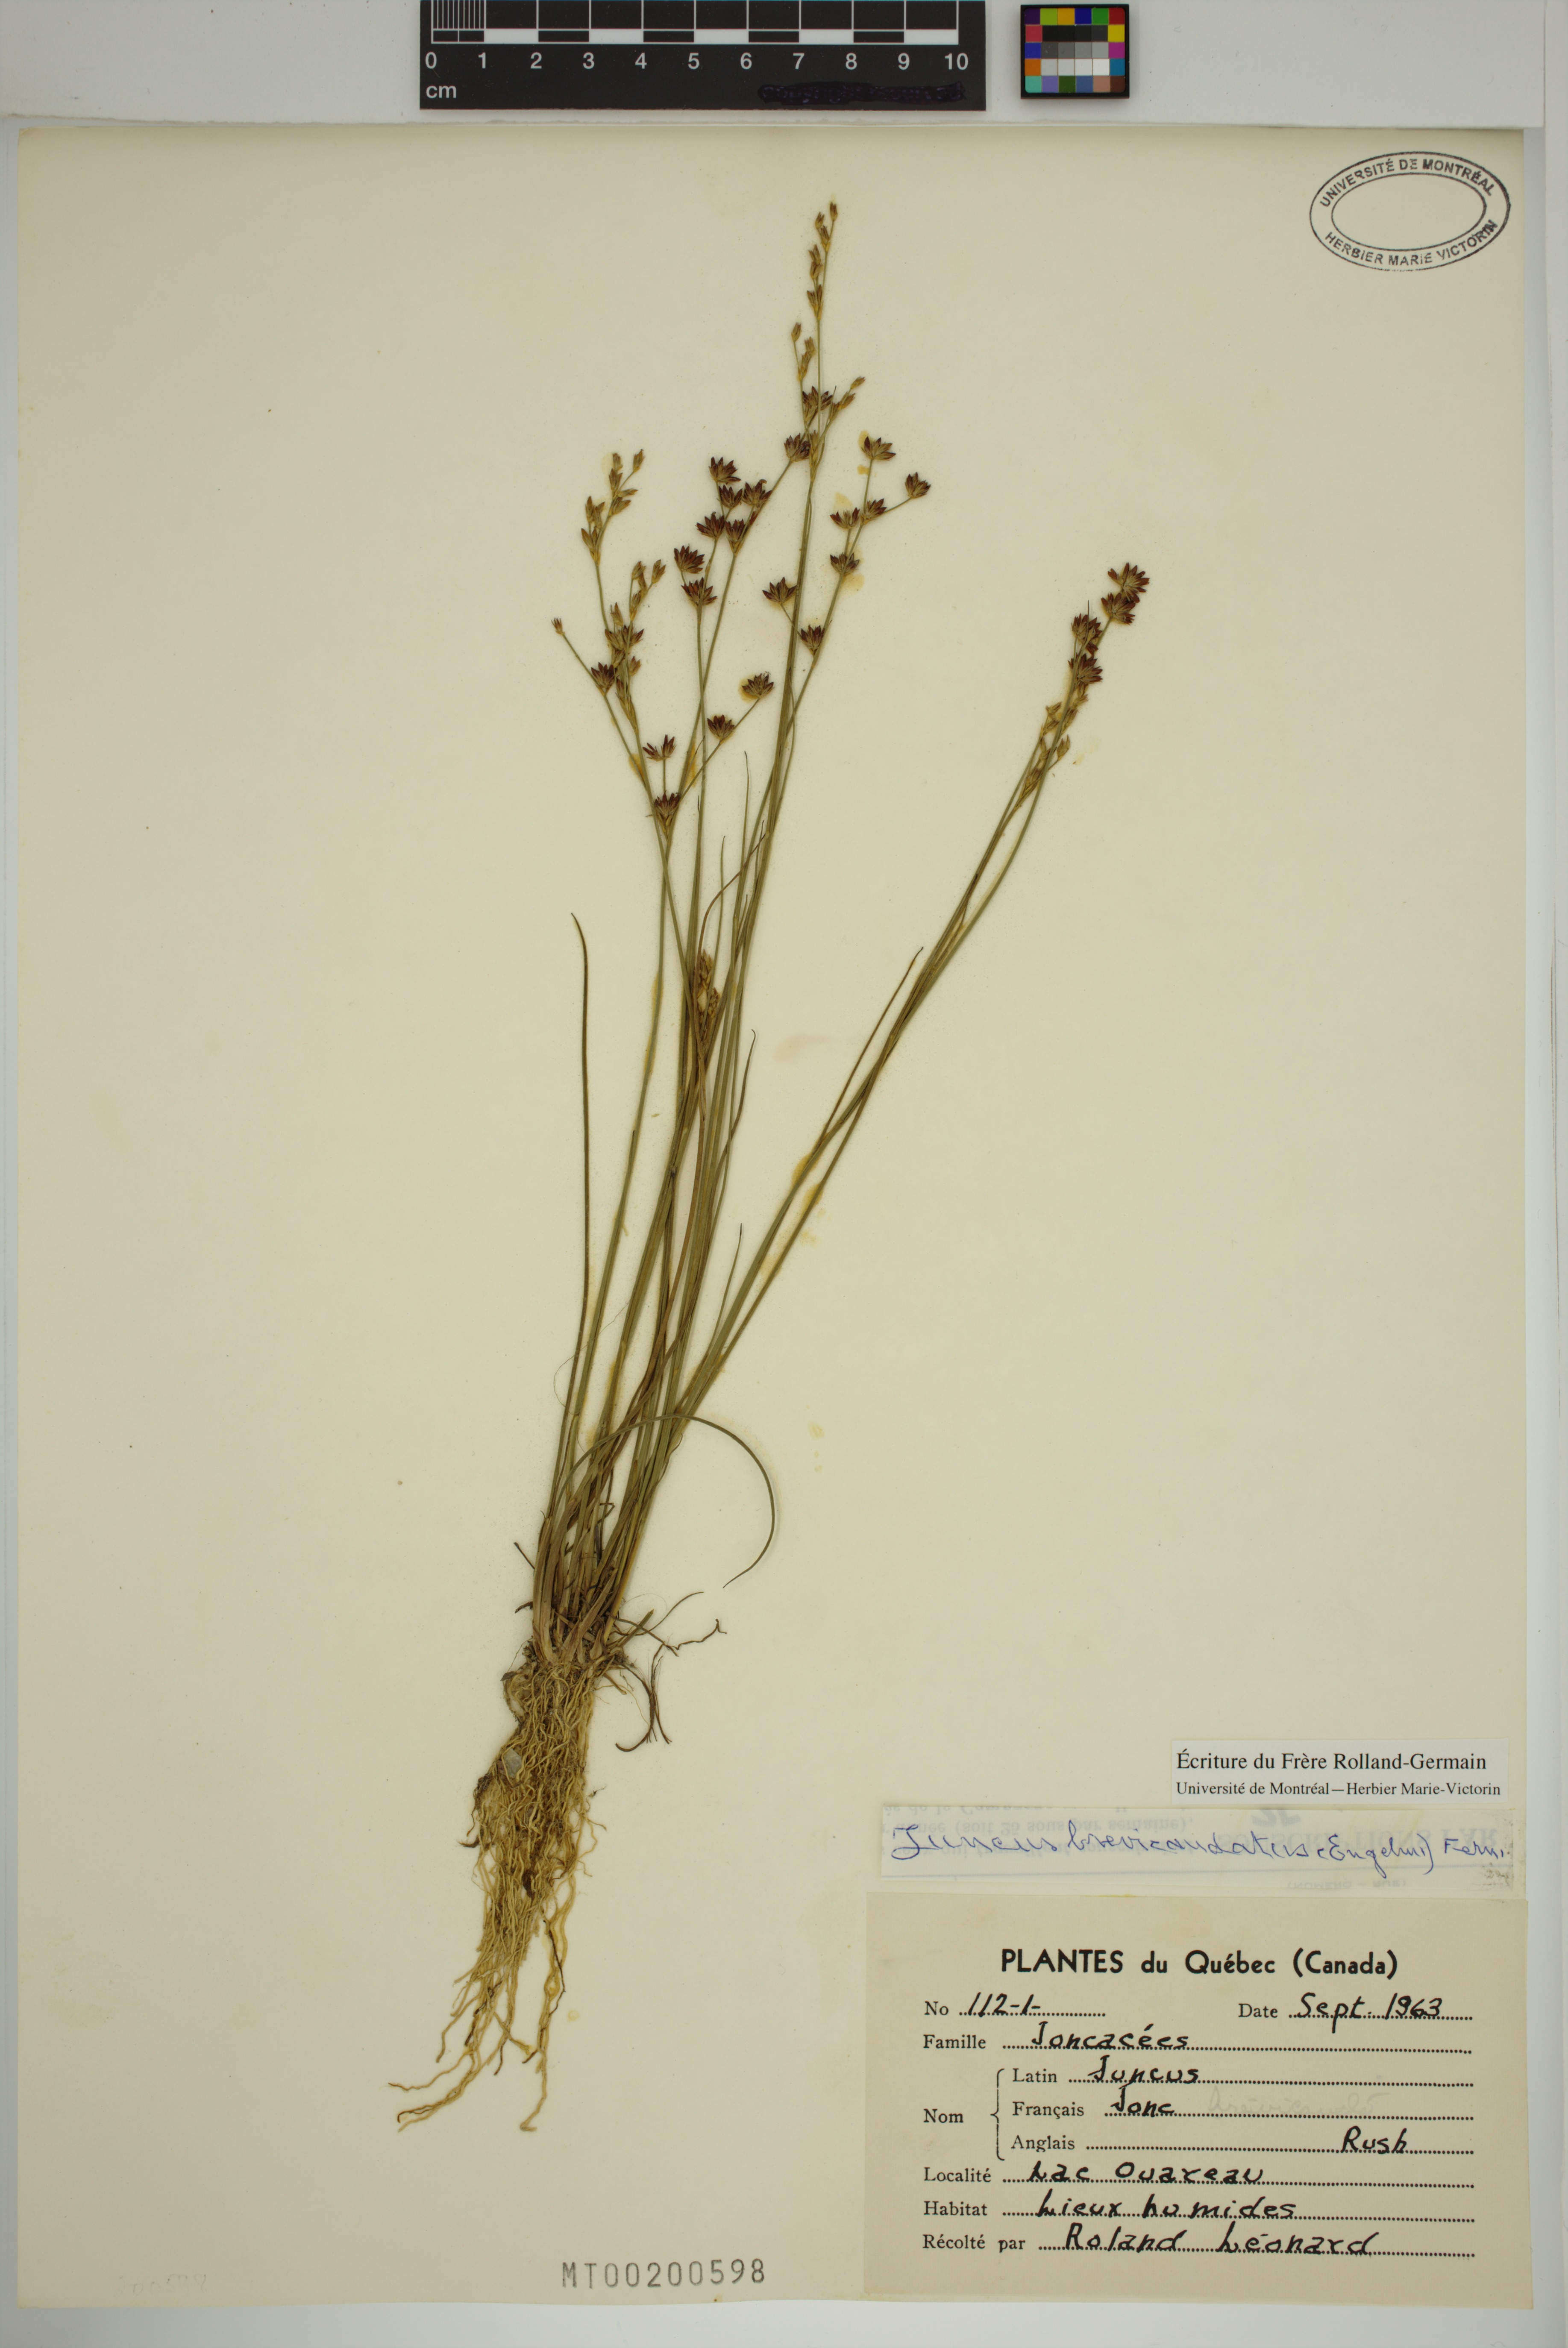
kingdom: Plantae
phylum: Tracheophyta
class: Liliopsida
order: Poales
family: Juncaceae
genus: Juncus
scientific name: Juncus brevicaudatus
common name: Narrow-panicle rush
